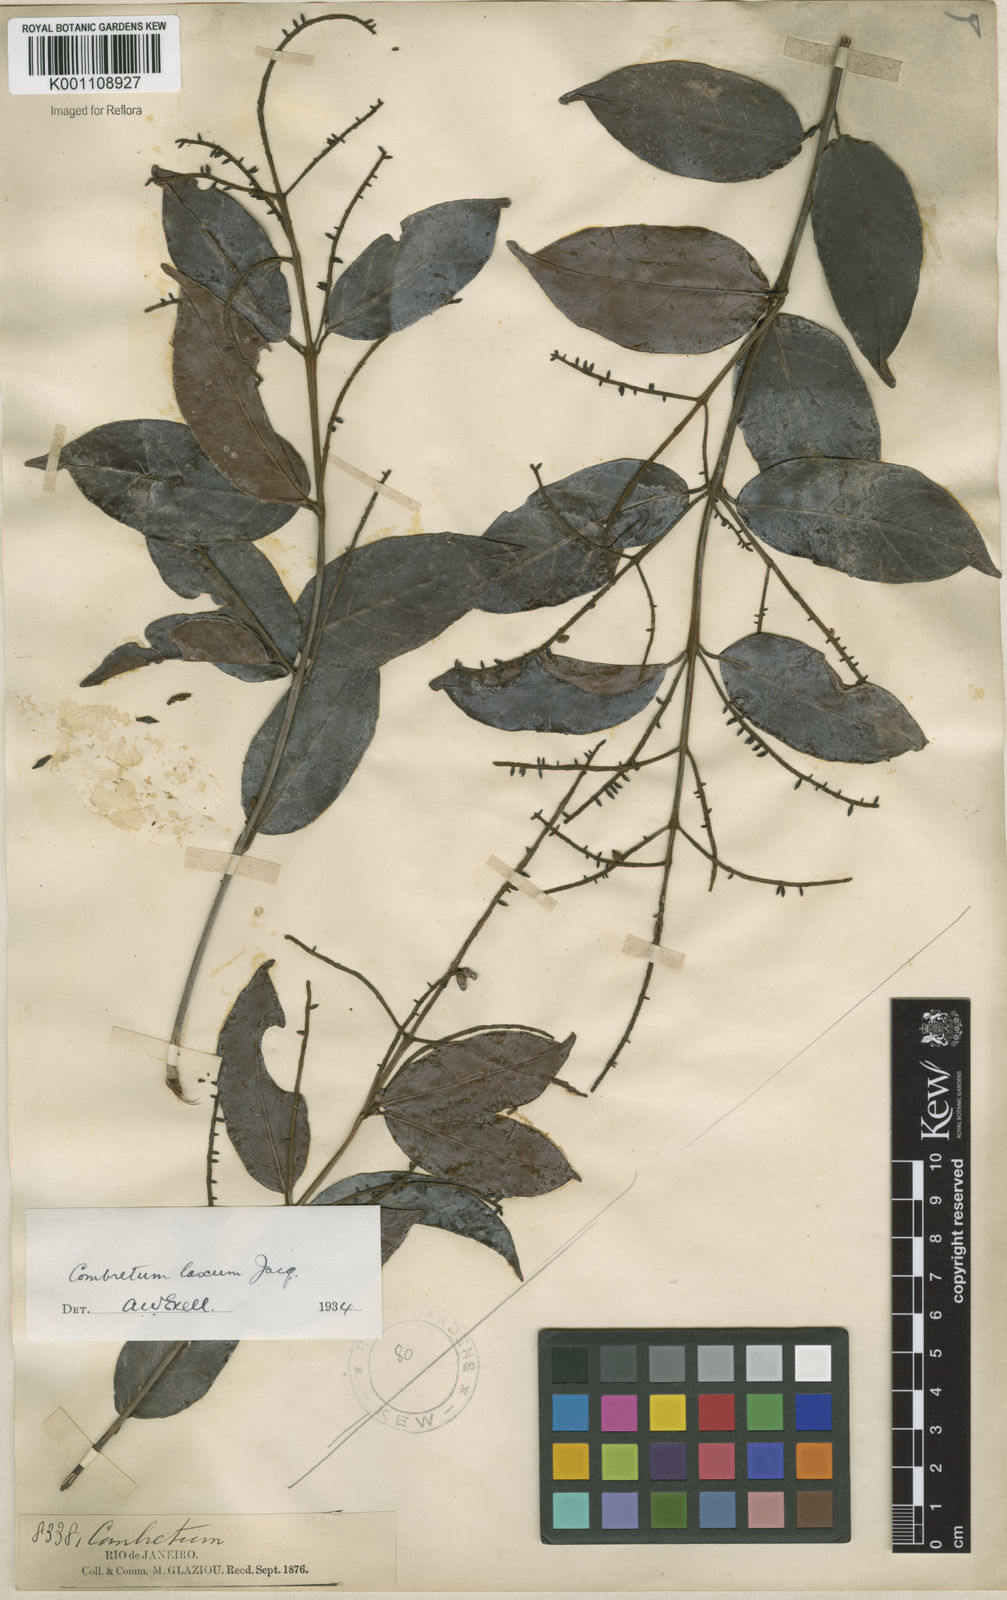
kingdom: Plantae
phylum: Tracheophyta
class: Magnoliopsida
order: Myrtales
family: Combretaceae
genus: Combretum
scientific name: Combretum laxum
